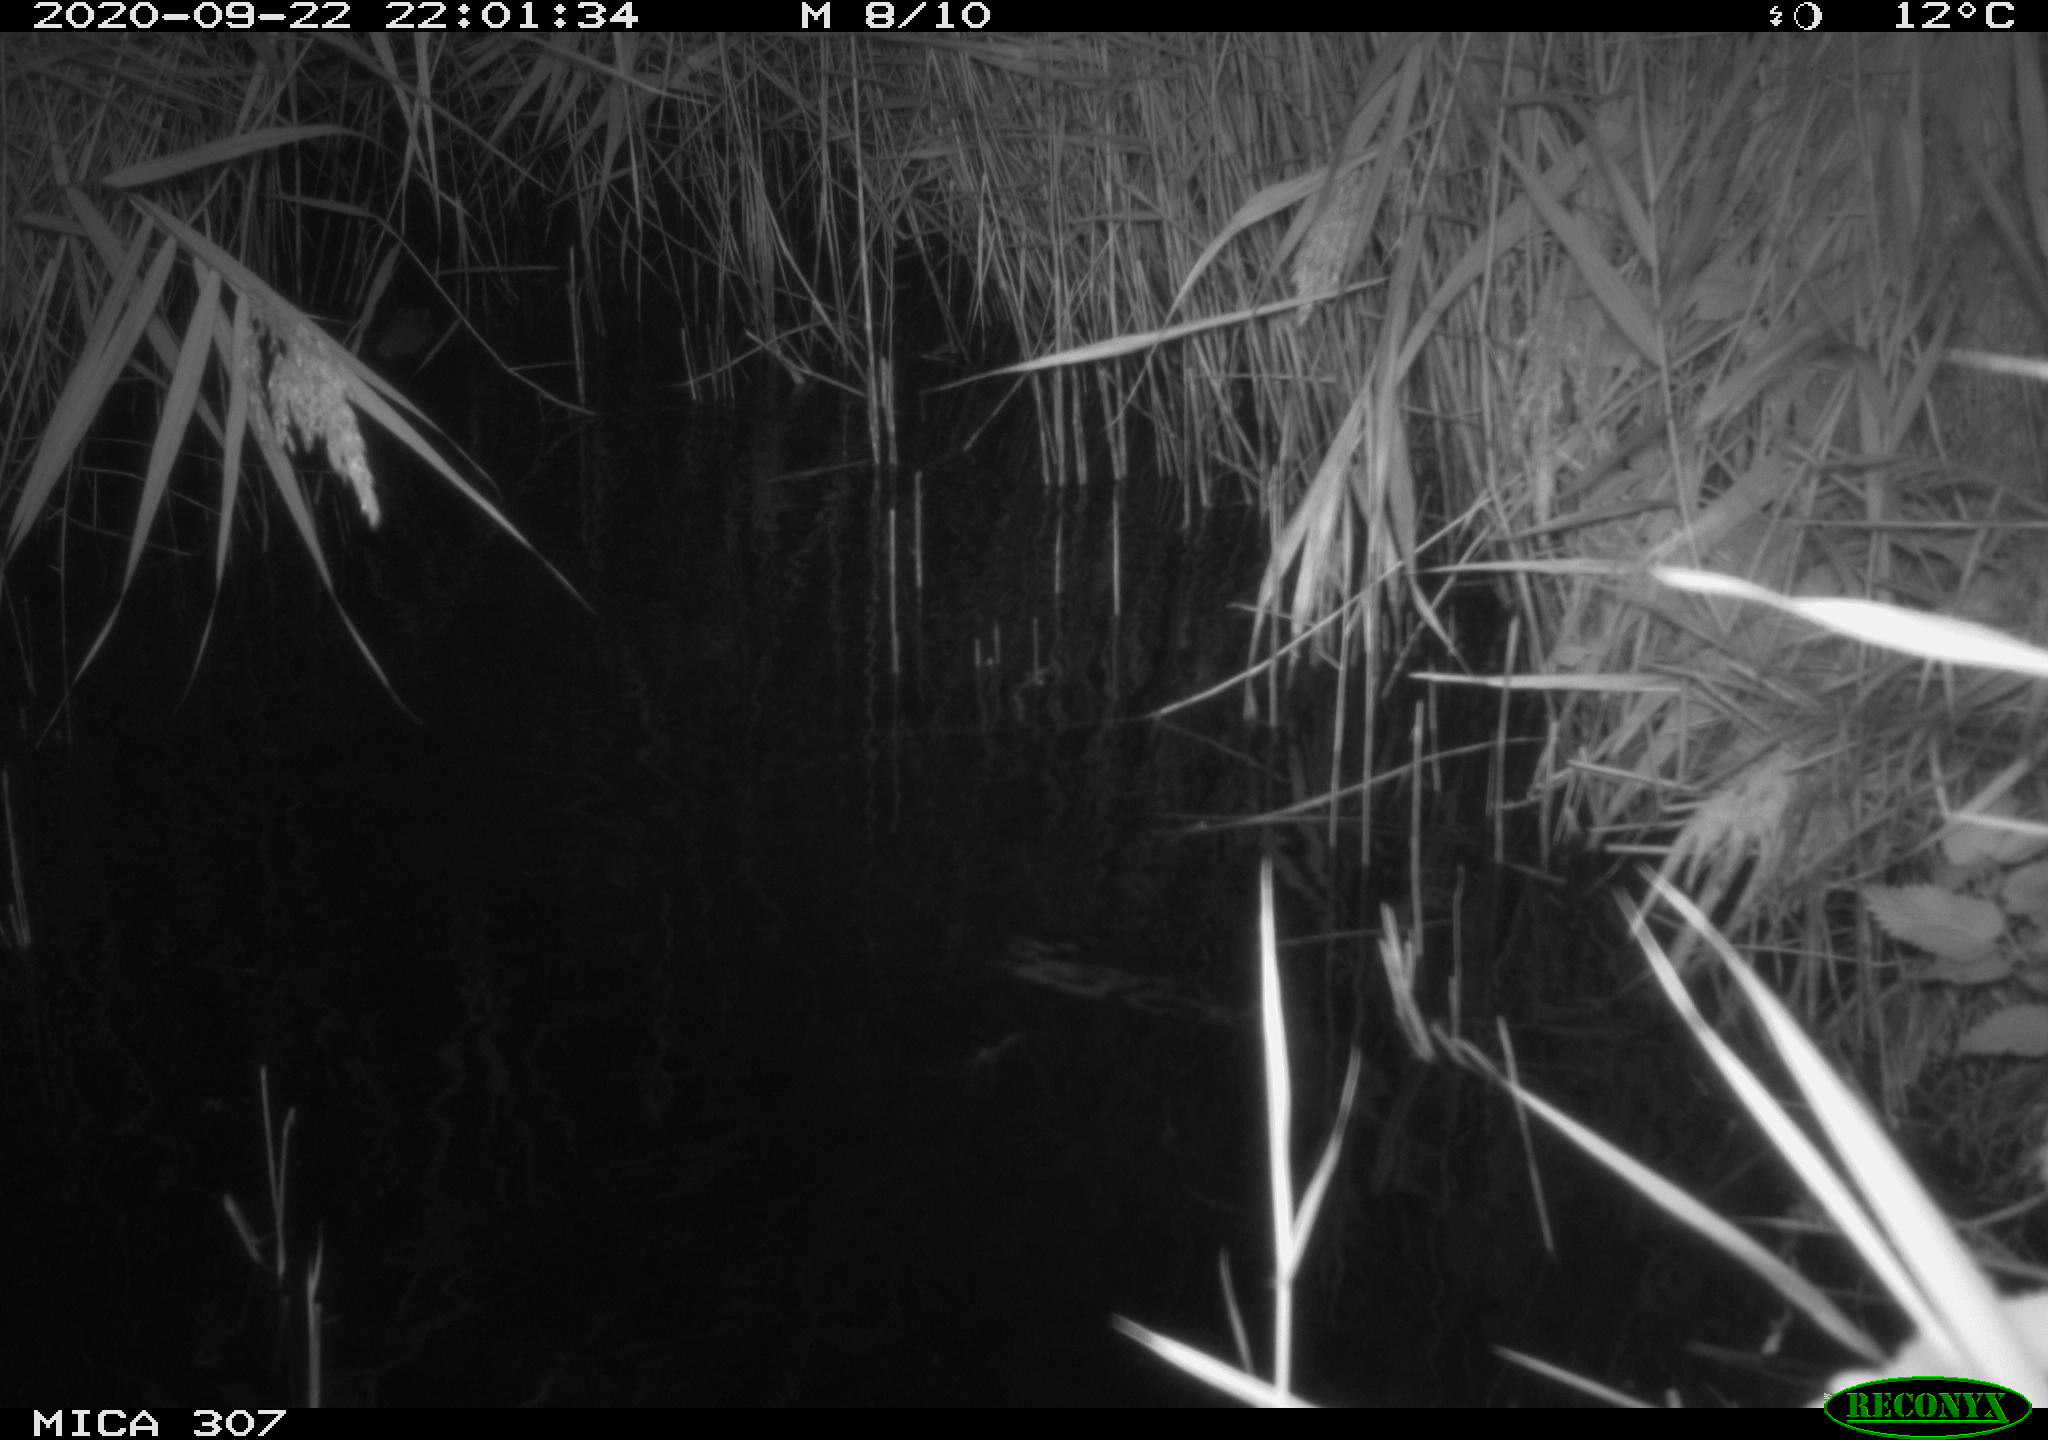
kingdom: Animalia
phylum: Chordata
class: Mammalia
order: Rodentia
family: Cricetidae
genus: Ondatra
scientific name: Ondatra zibethicus
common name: Muskrat
